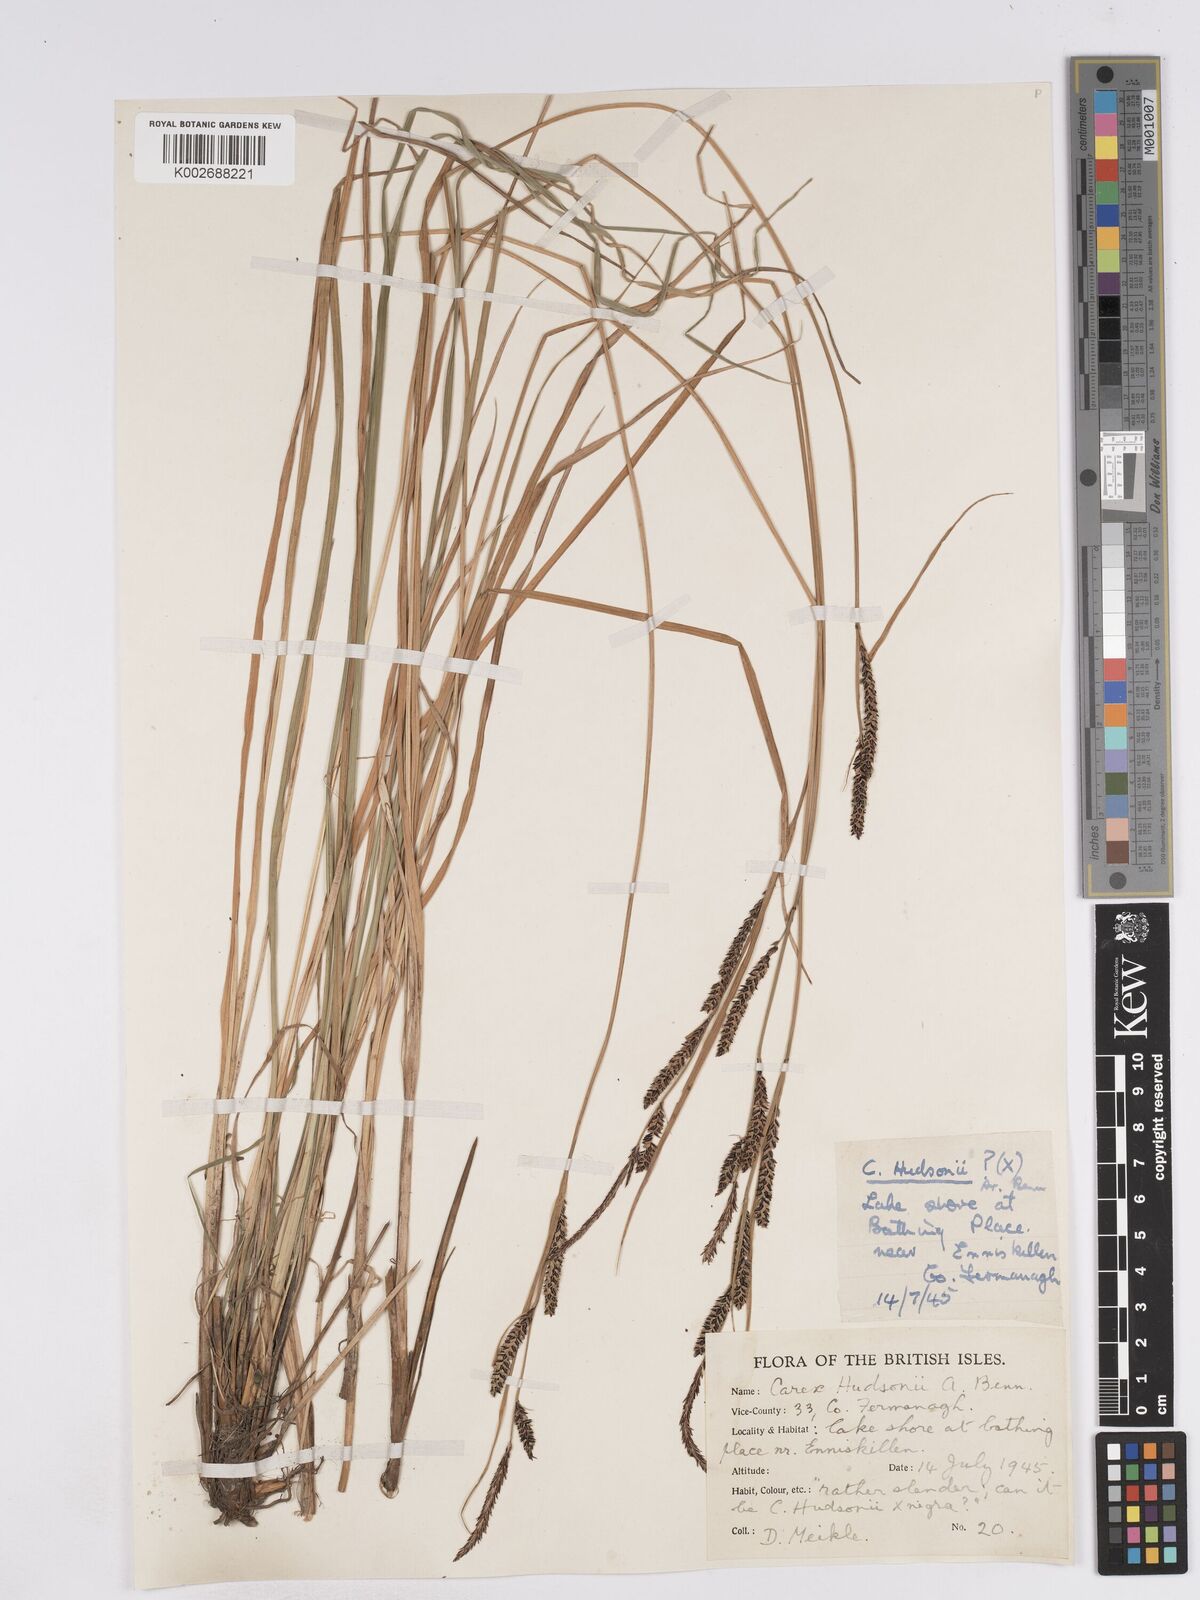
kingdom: Plantae
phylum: Tracheophyta
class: Liliopsida
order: Poales
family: Cyperaceae
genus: Carex
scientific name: Carex elata
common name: Tufted sedge
